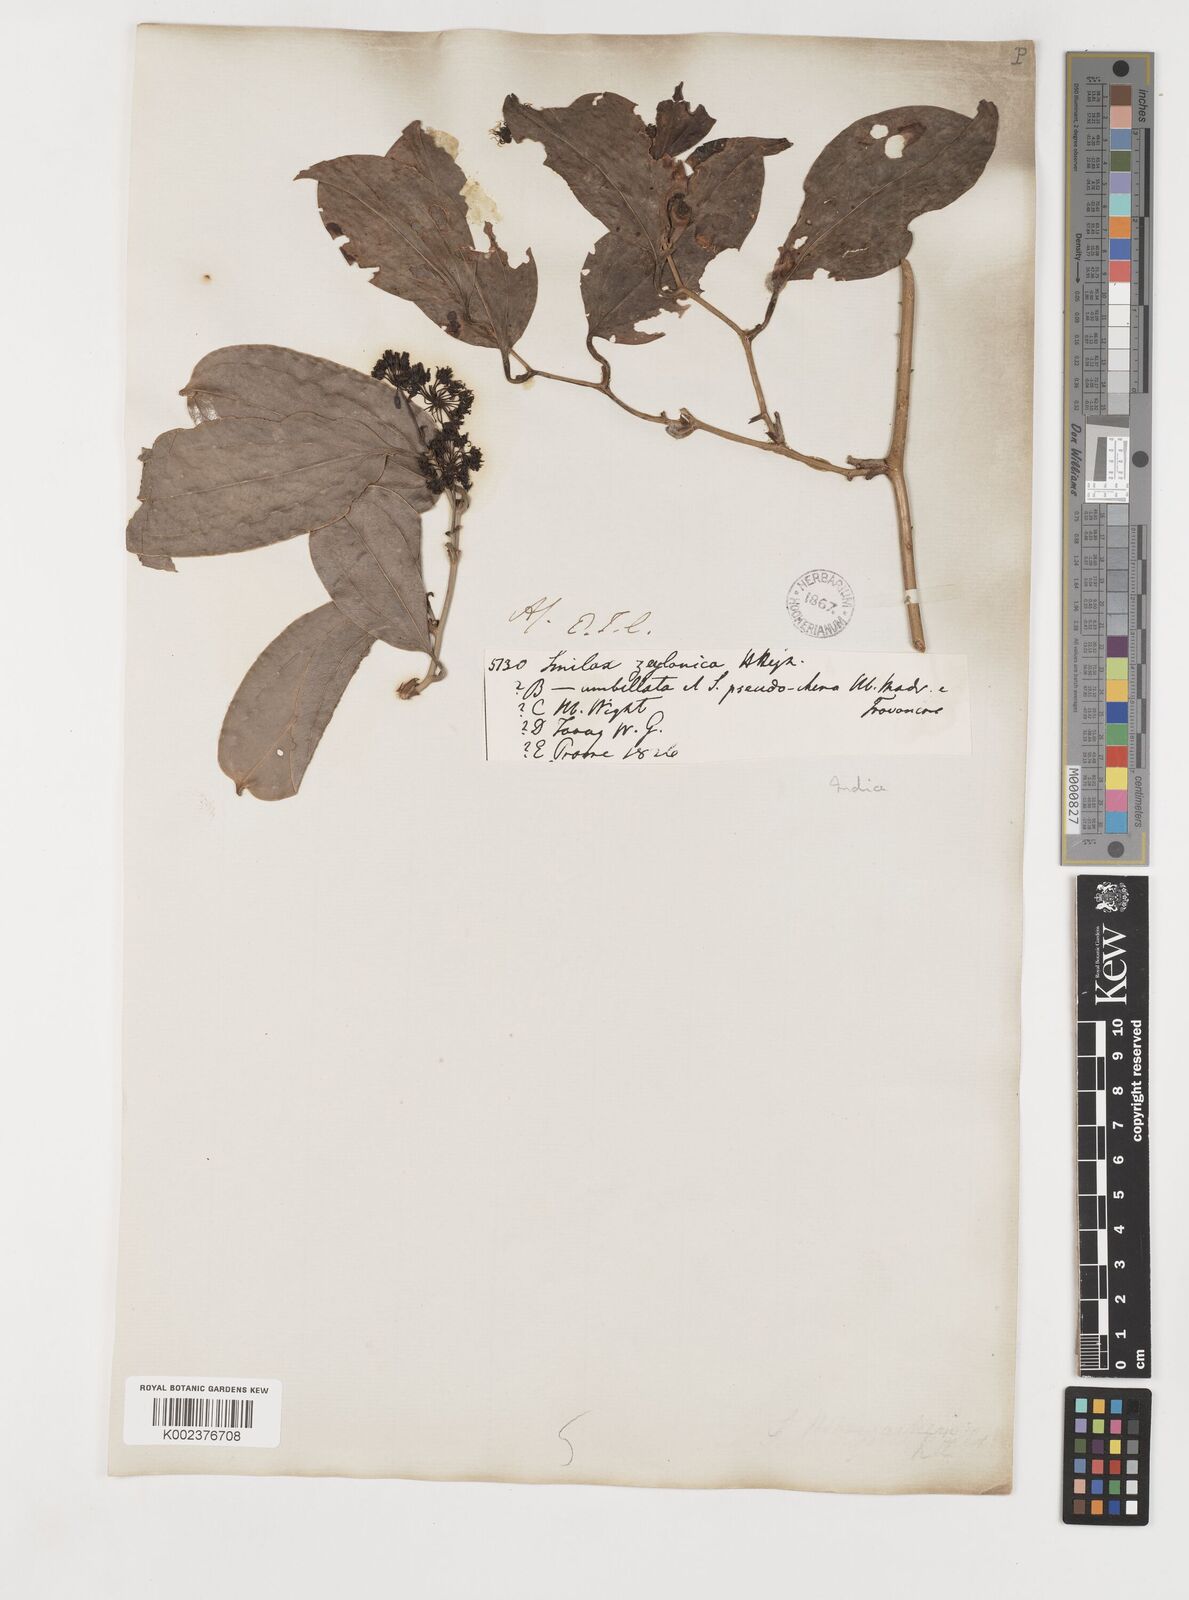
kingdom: Plantae
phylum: Tracheophyta
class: Liliopsida
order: Liliales
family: Smilacaceae
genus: Smilax
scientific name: Smilax zeylanica
